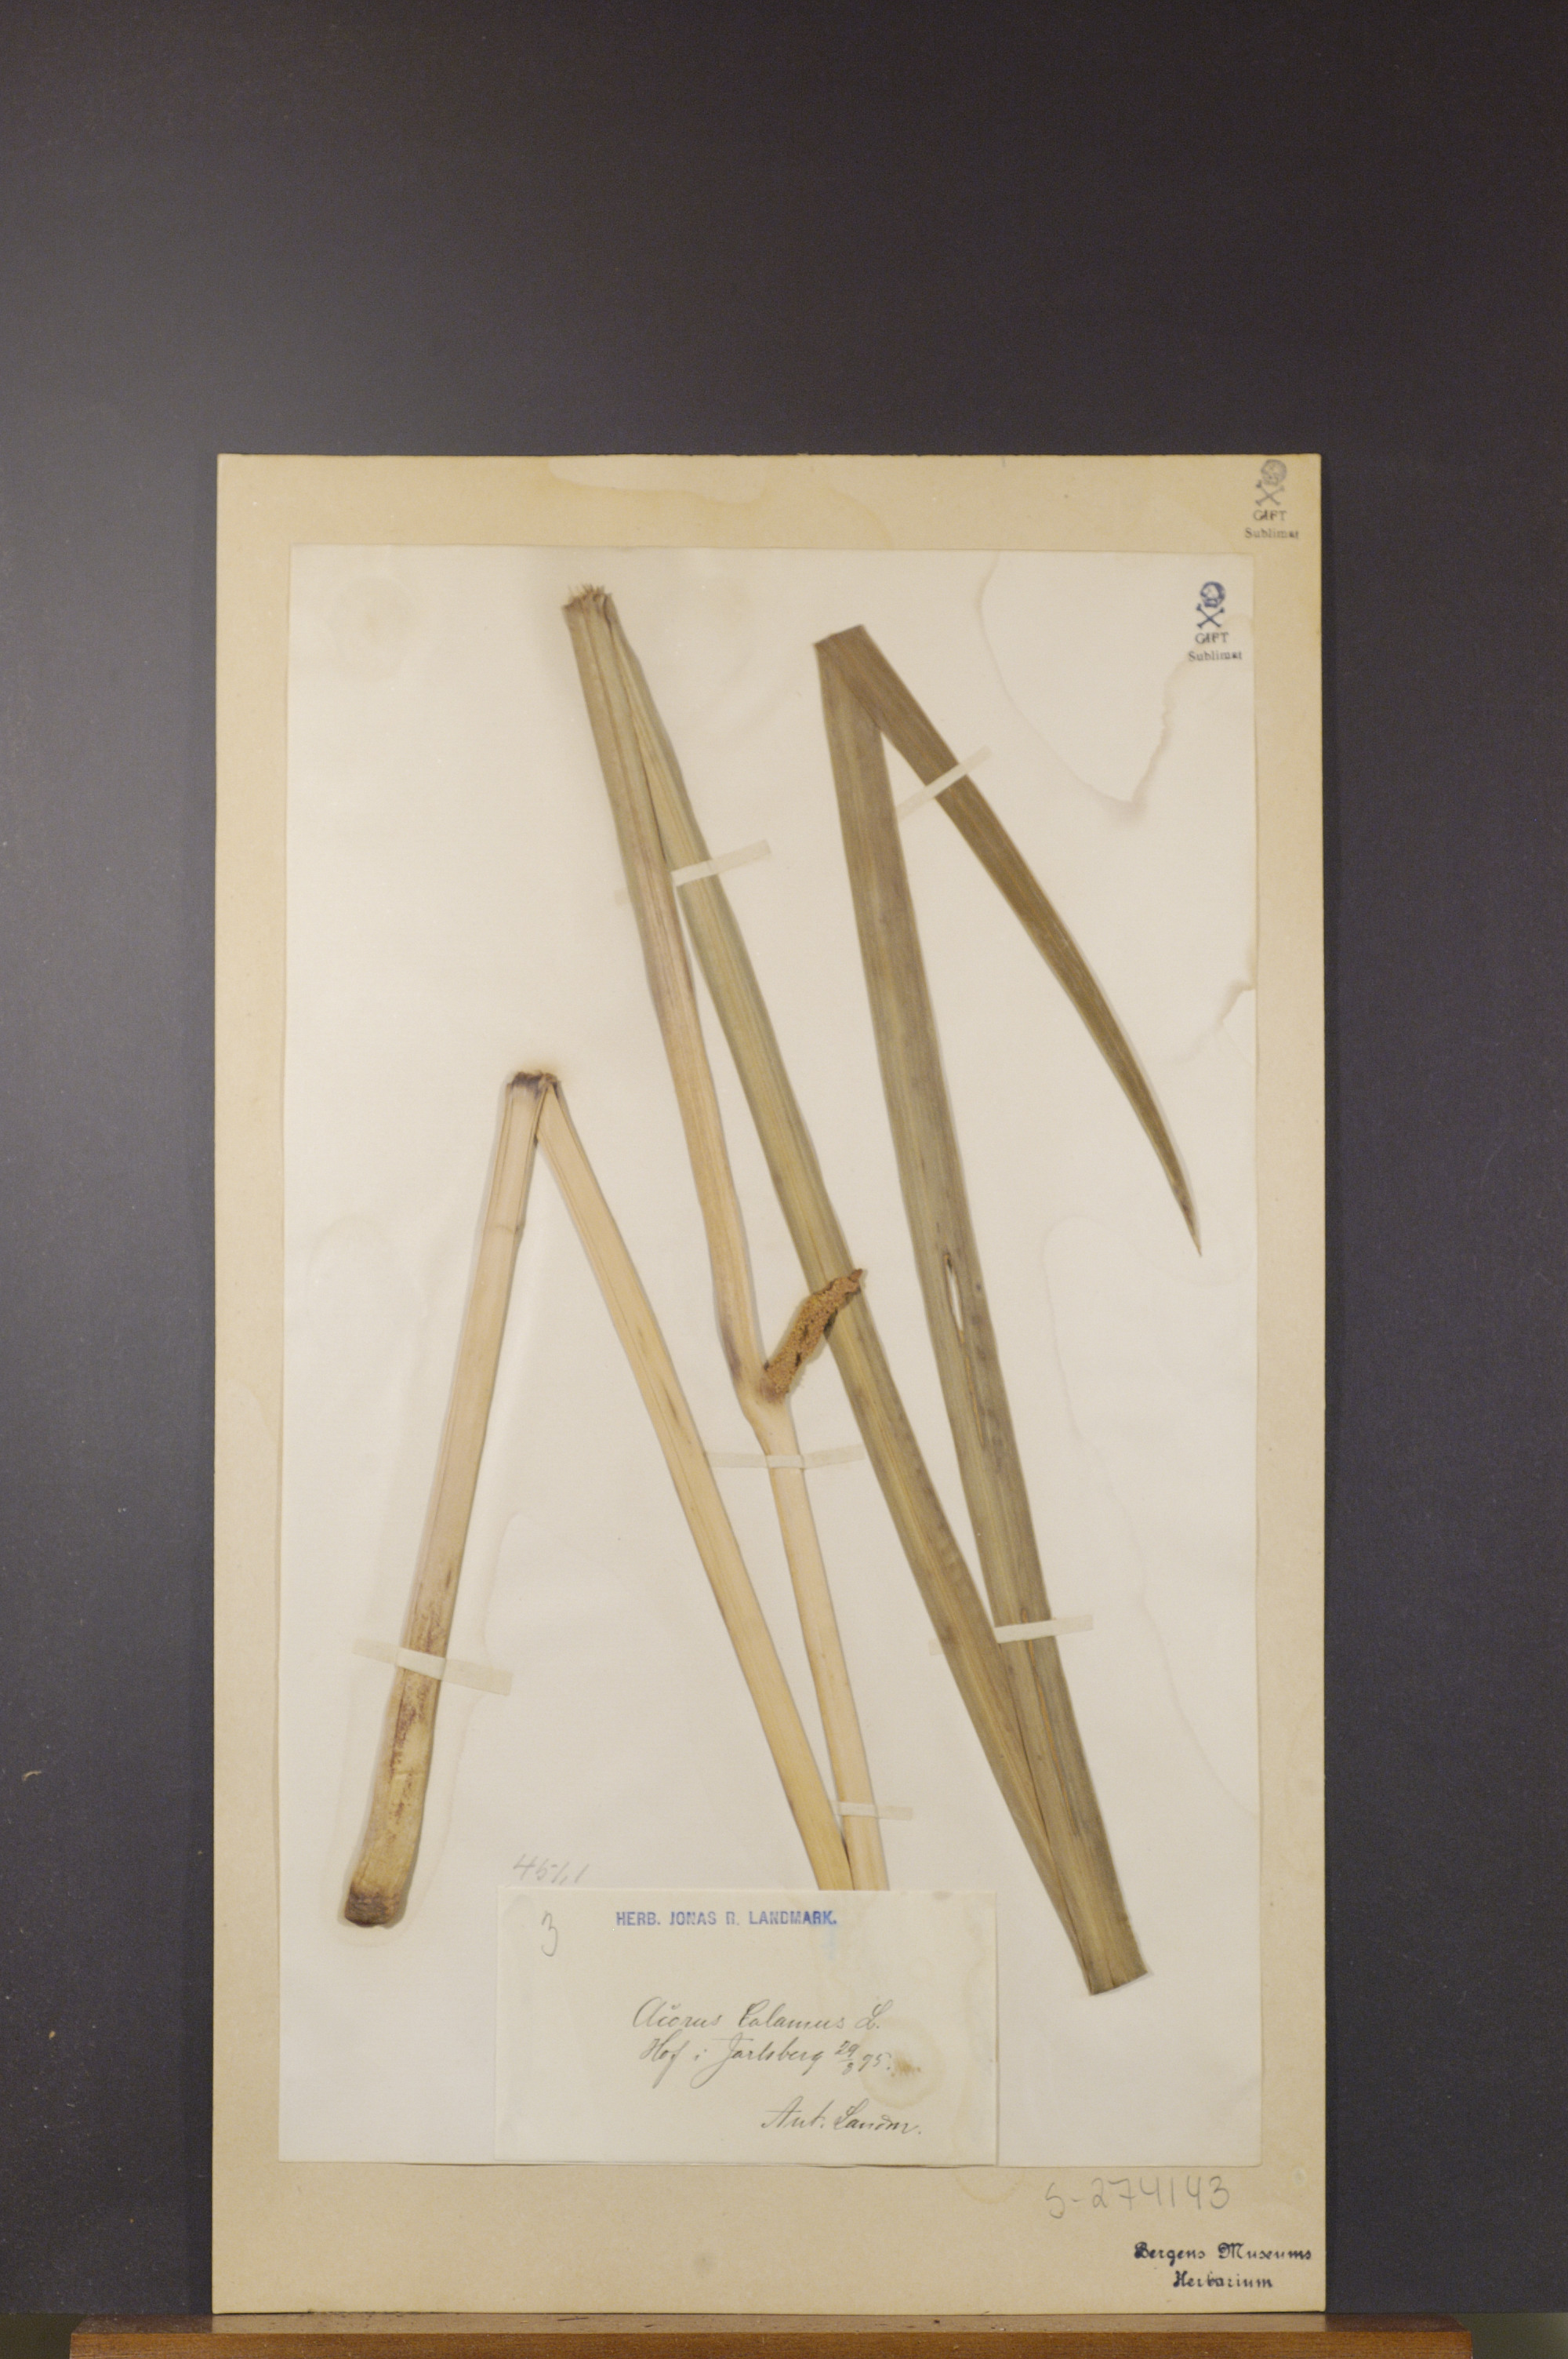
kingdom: Plantae
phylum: Tracheophyta
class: Liliopsida
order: Acorales
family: Acoraceae
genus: Acorus
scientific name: Acorus calamus
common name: Sweet-flag
